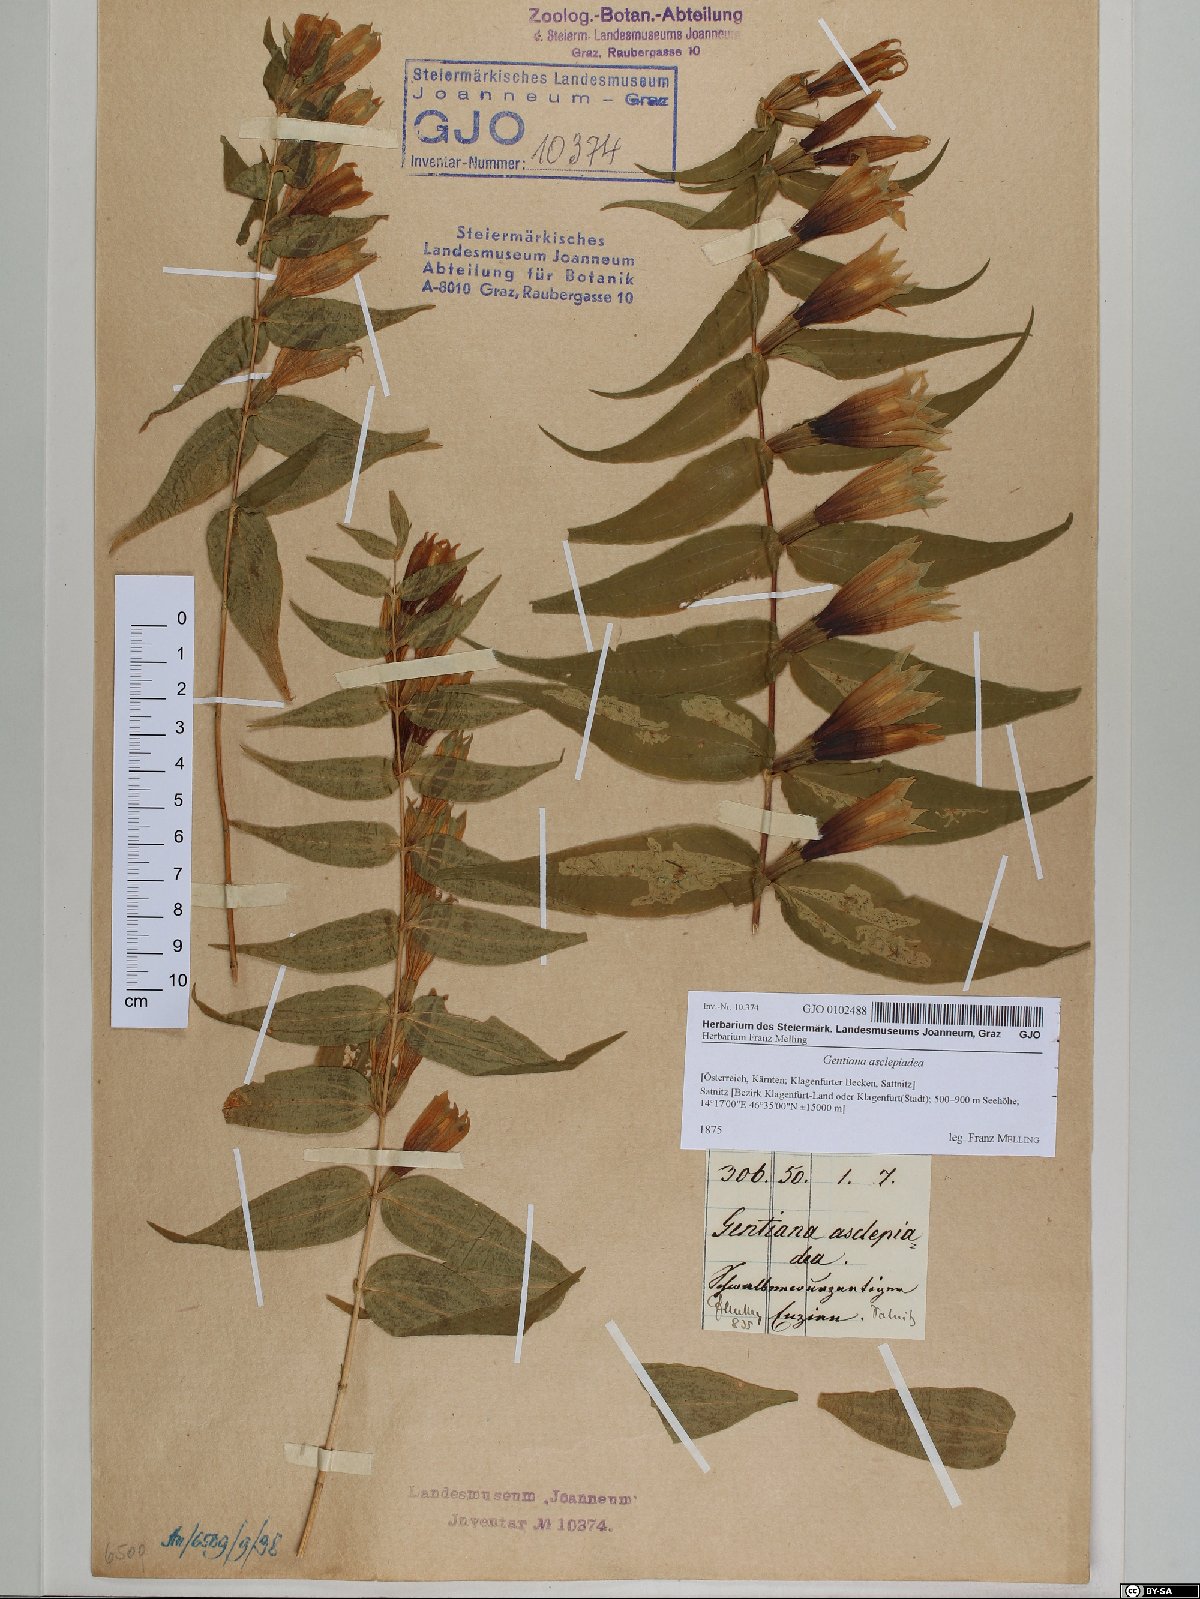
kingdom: Plantae
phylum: Tracheophyta
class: Magnoliopsida
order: Gentianales
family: Gentianaceae
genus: Gentiana
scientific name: Gentiana asclepiadea
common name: Willow gentian
